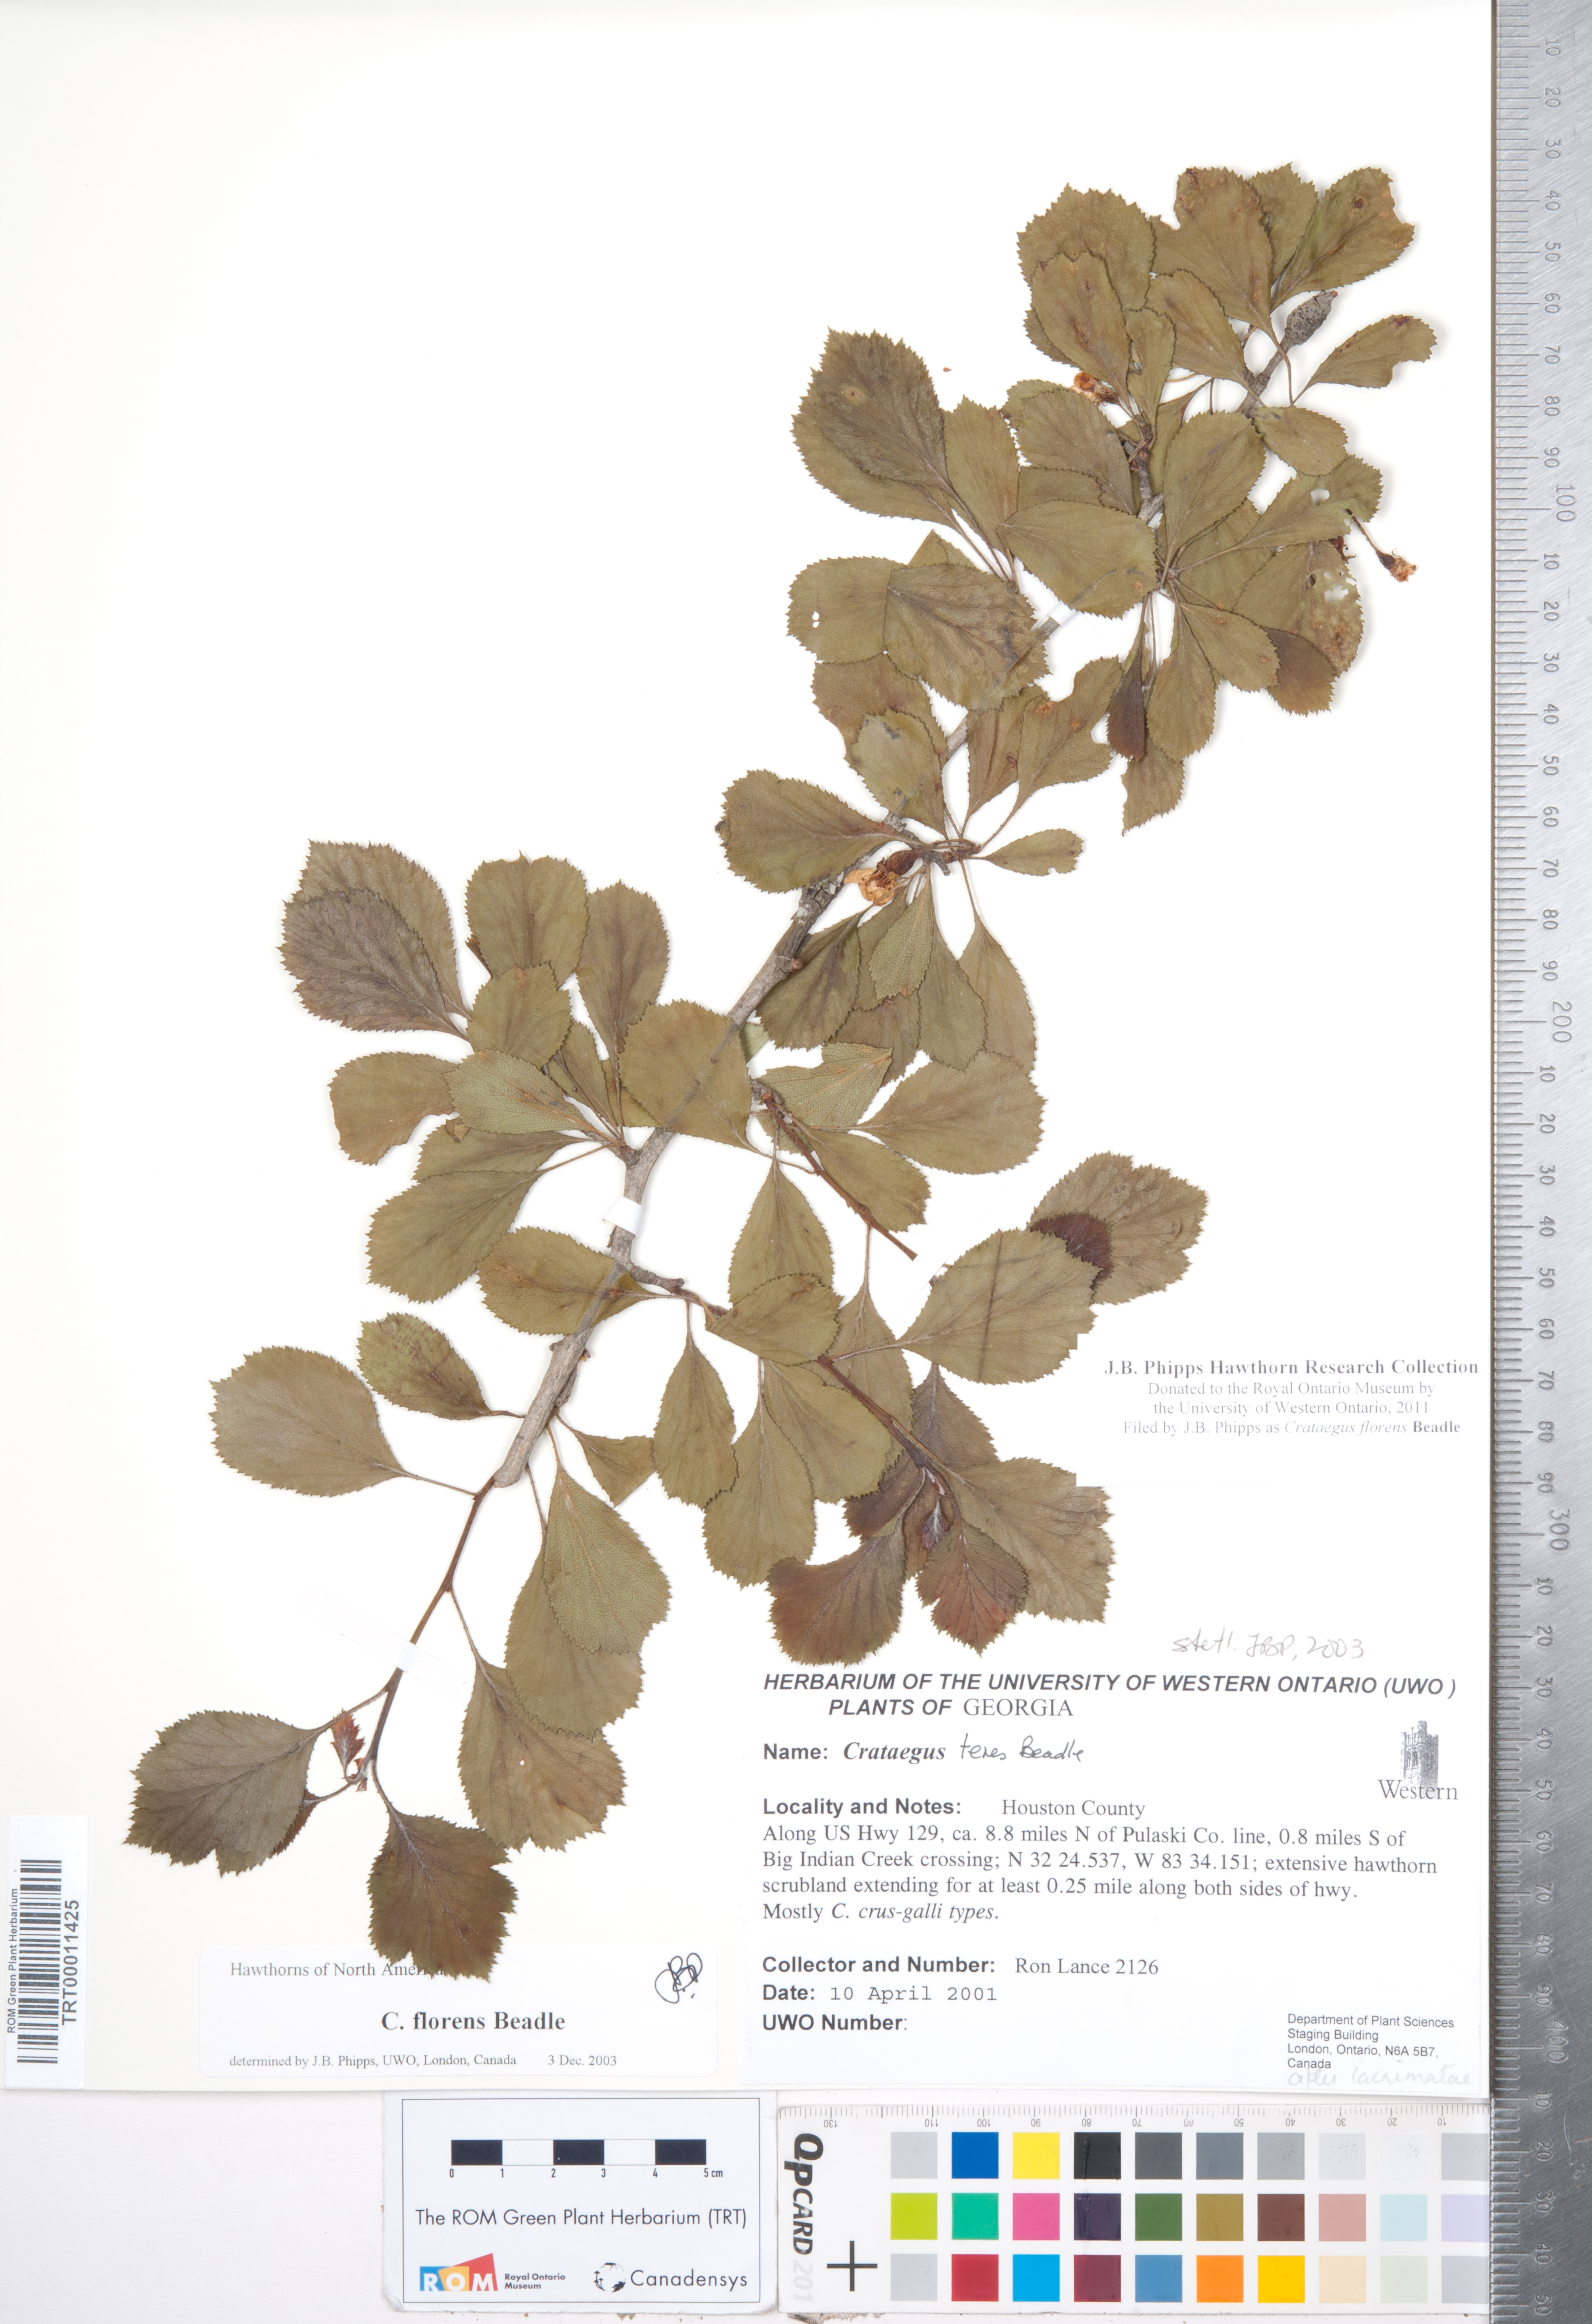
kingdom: Plantae
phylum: Tracheophyta
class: Magnoliopsida
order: Rosales
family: Rosaceae
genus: Crataegus
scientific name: Crataegus alabamensis
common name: Alabama hawthorn
